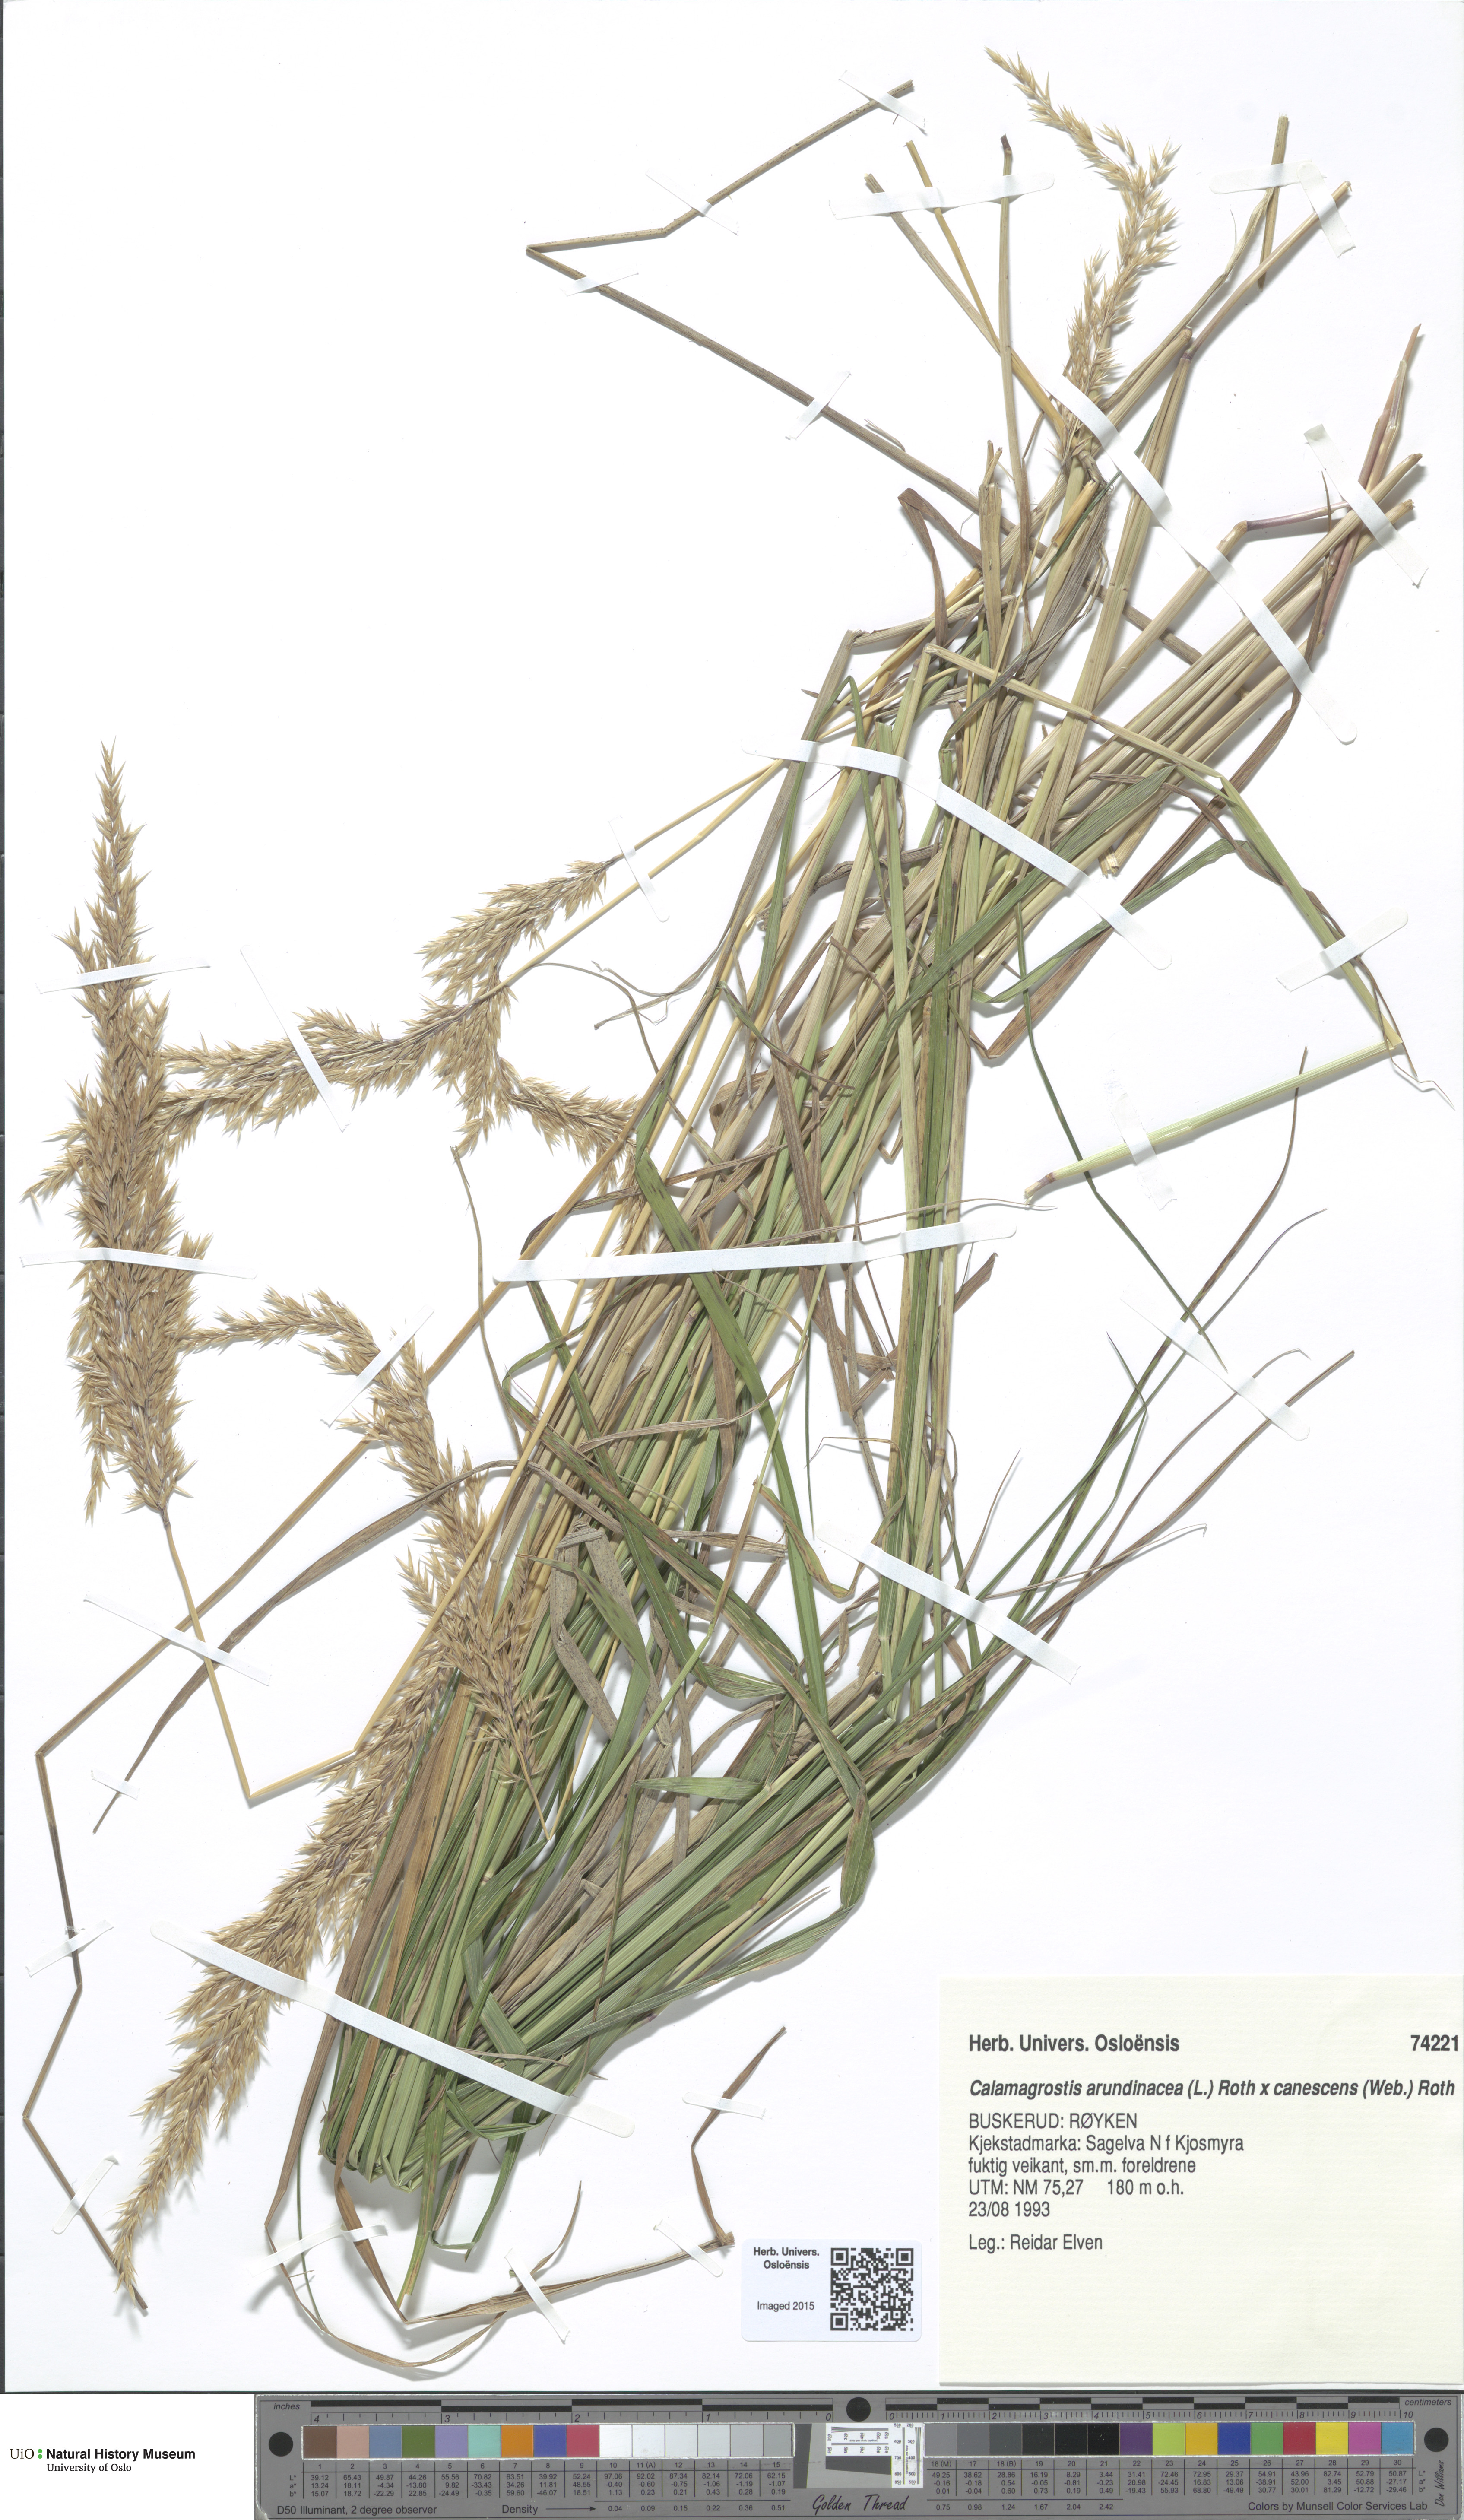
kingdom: Plantae
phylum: Tracheophyta
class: Liliopsida
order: Poales
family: Poaceae
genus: Calamagrostis
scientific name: Calamagrostis
